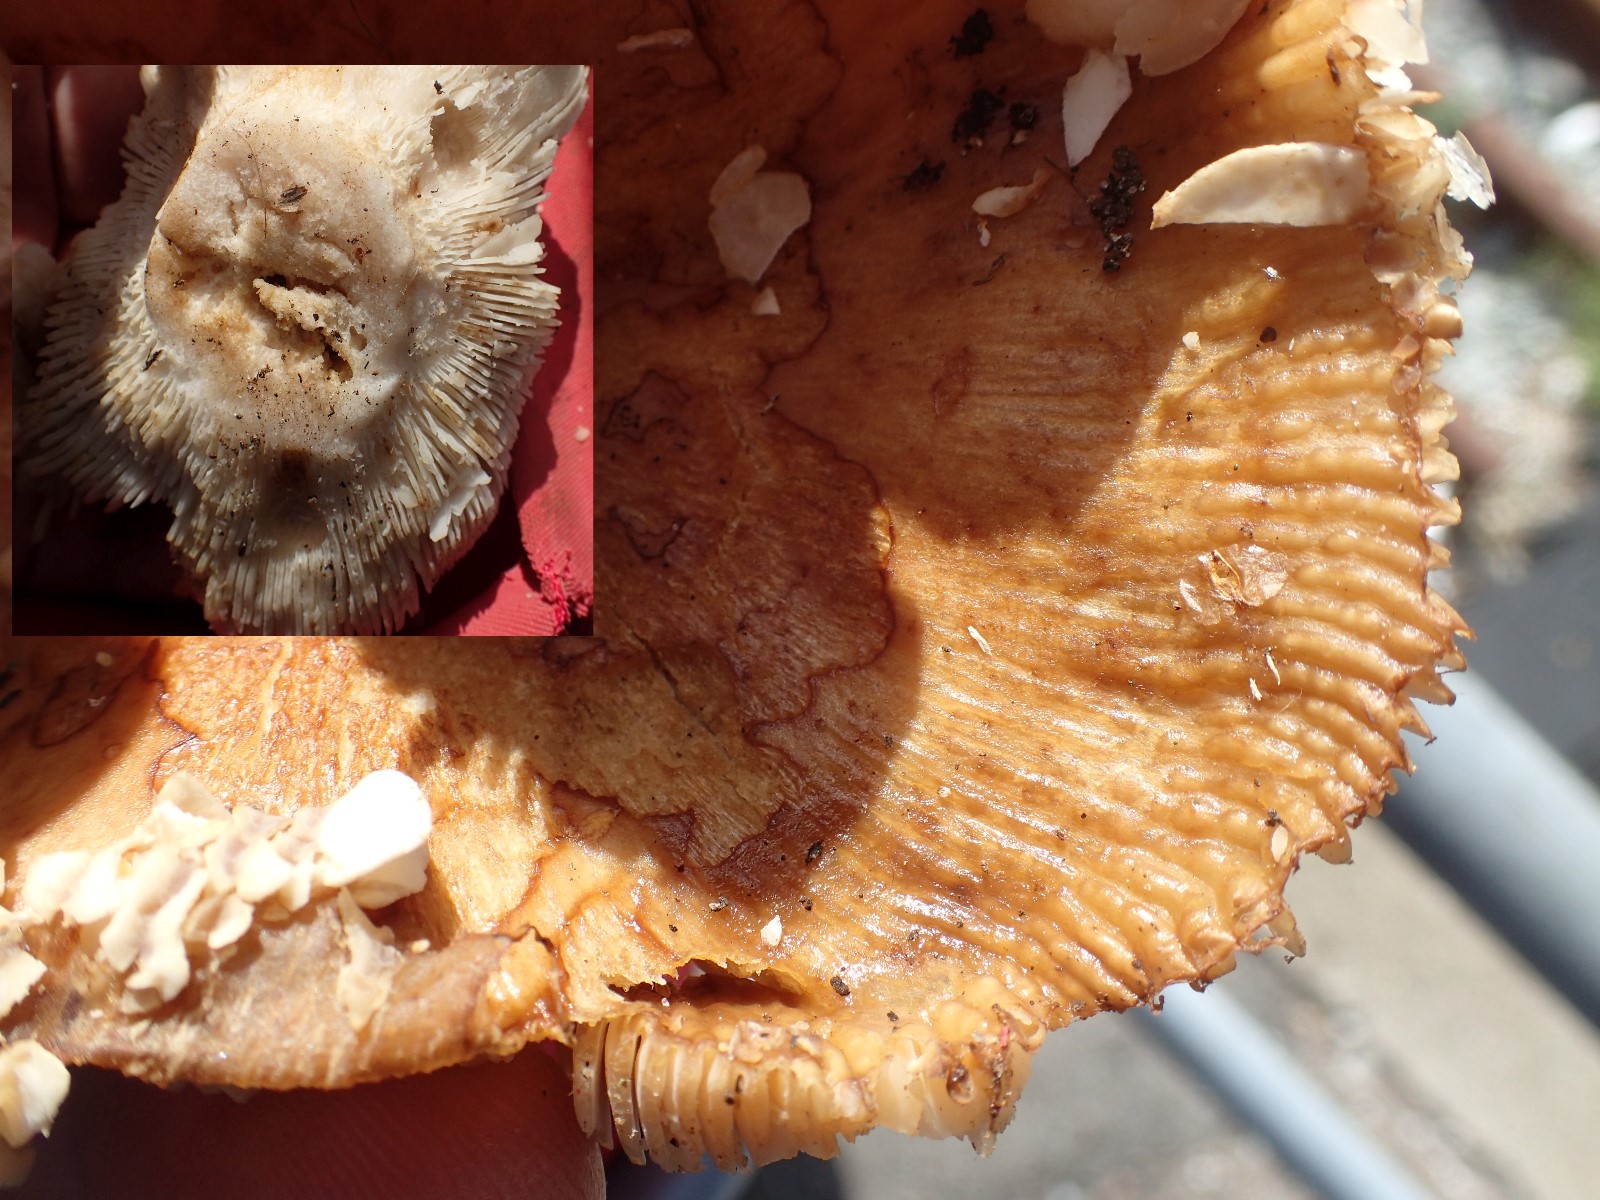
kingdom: Fungi
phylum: Basidiomycota
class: Agaricomycetes
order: Russulales
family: Russulaceae
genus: Russula
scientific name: Russula foetens
